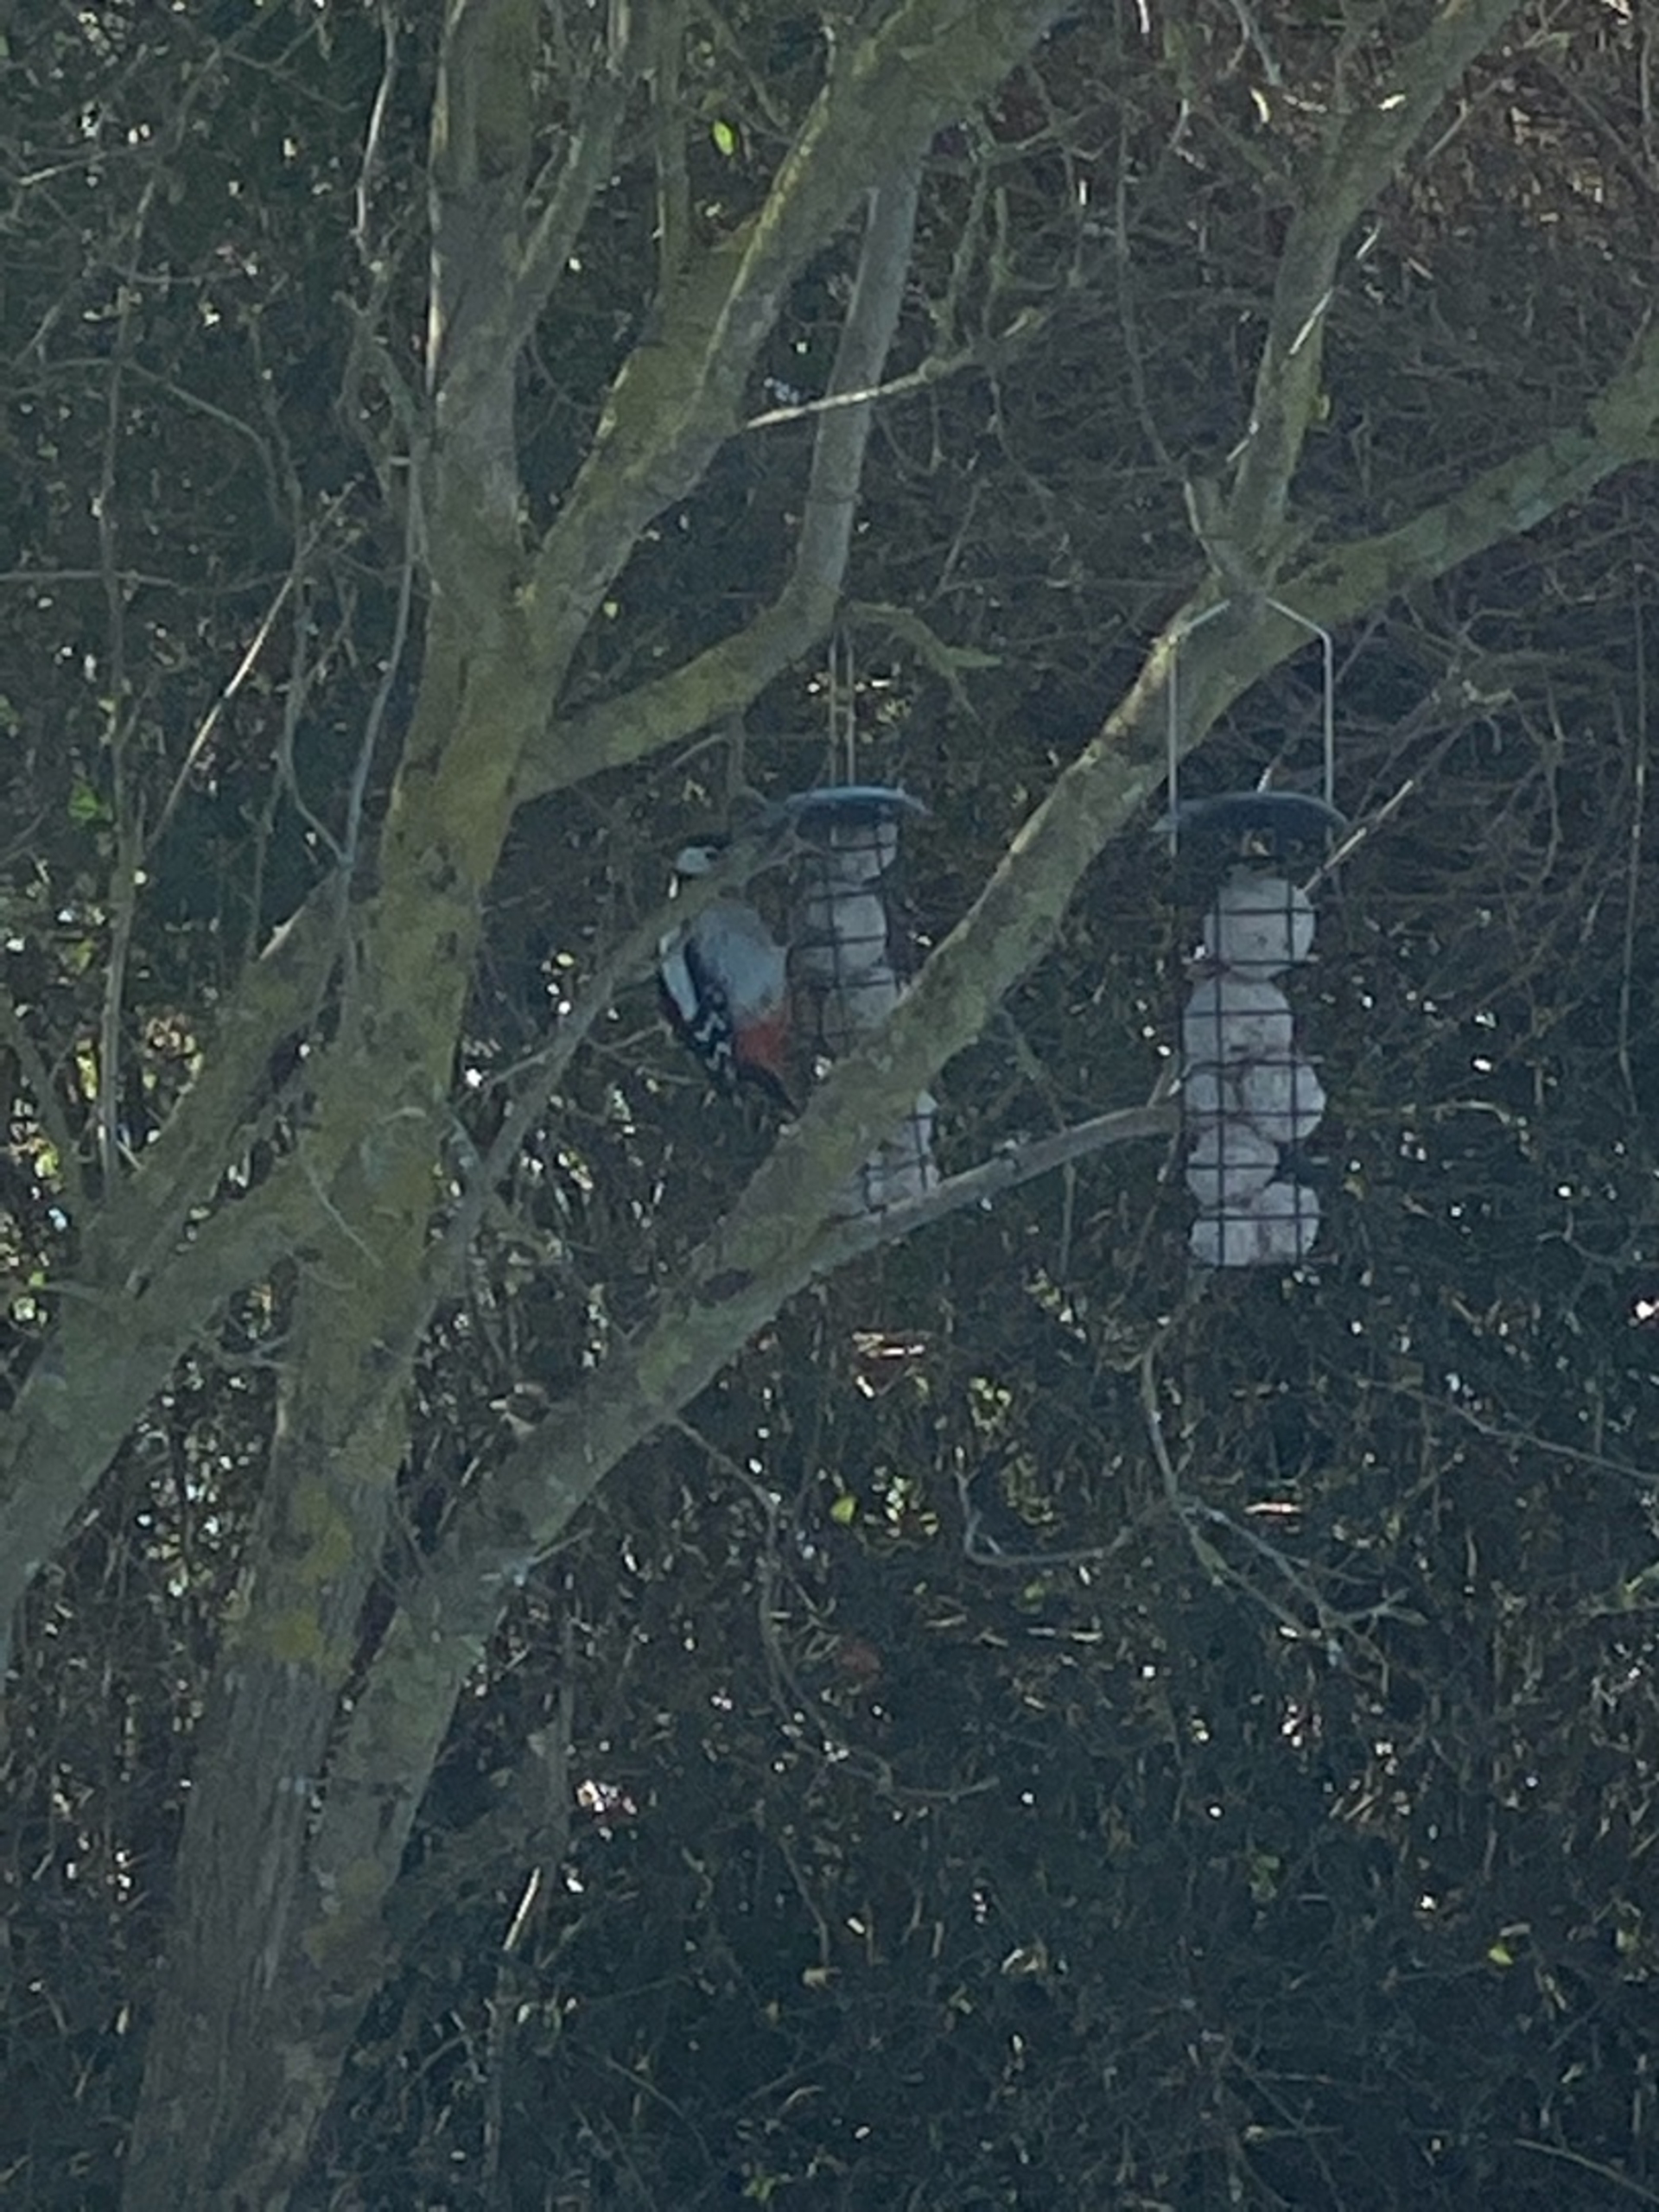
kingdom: Animalia
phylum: Chordata
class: Aves
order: Piciformes
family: Picidae
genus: Dendrocopos
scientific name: Dendrocopos major
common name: Stor flagspætte
